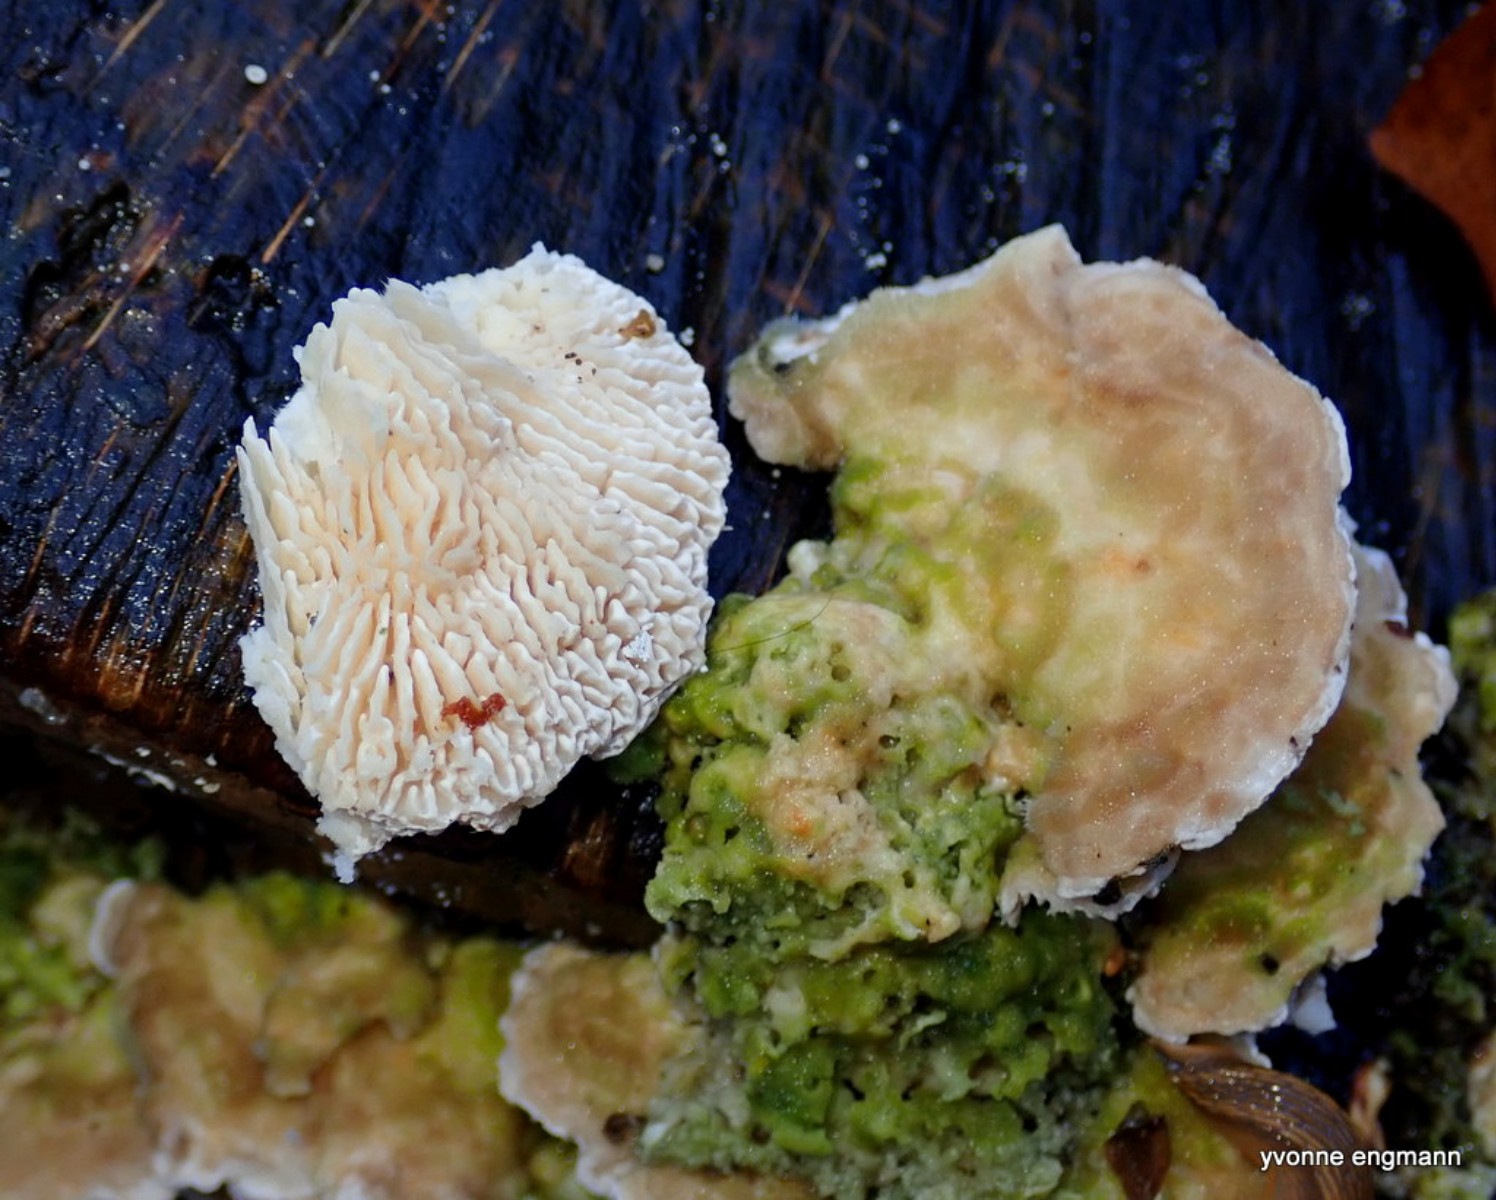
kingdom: Fungi
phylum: Basidiomycota
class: Agaricomycetes
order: Polyporales
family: Polyporaceae
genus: Lenzites
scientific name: Lenzites betulinus
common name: birke-læderporesvamp
